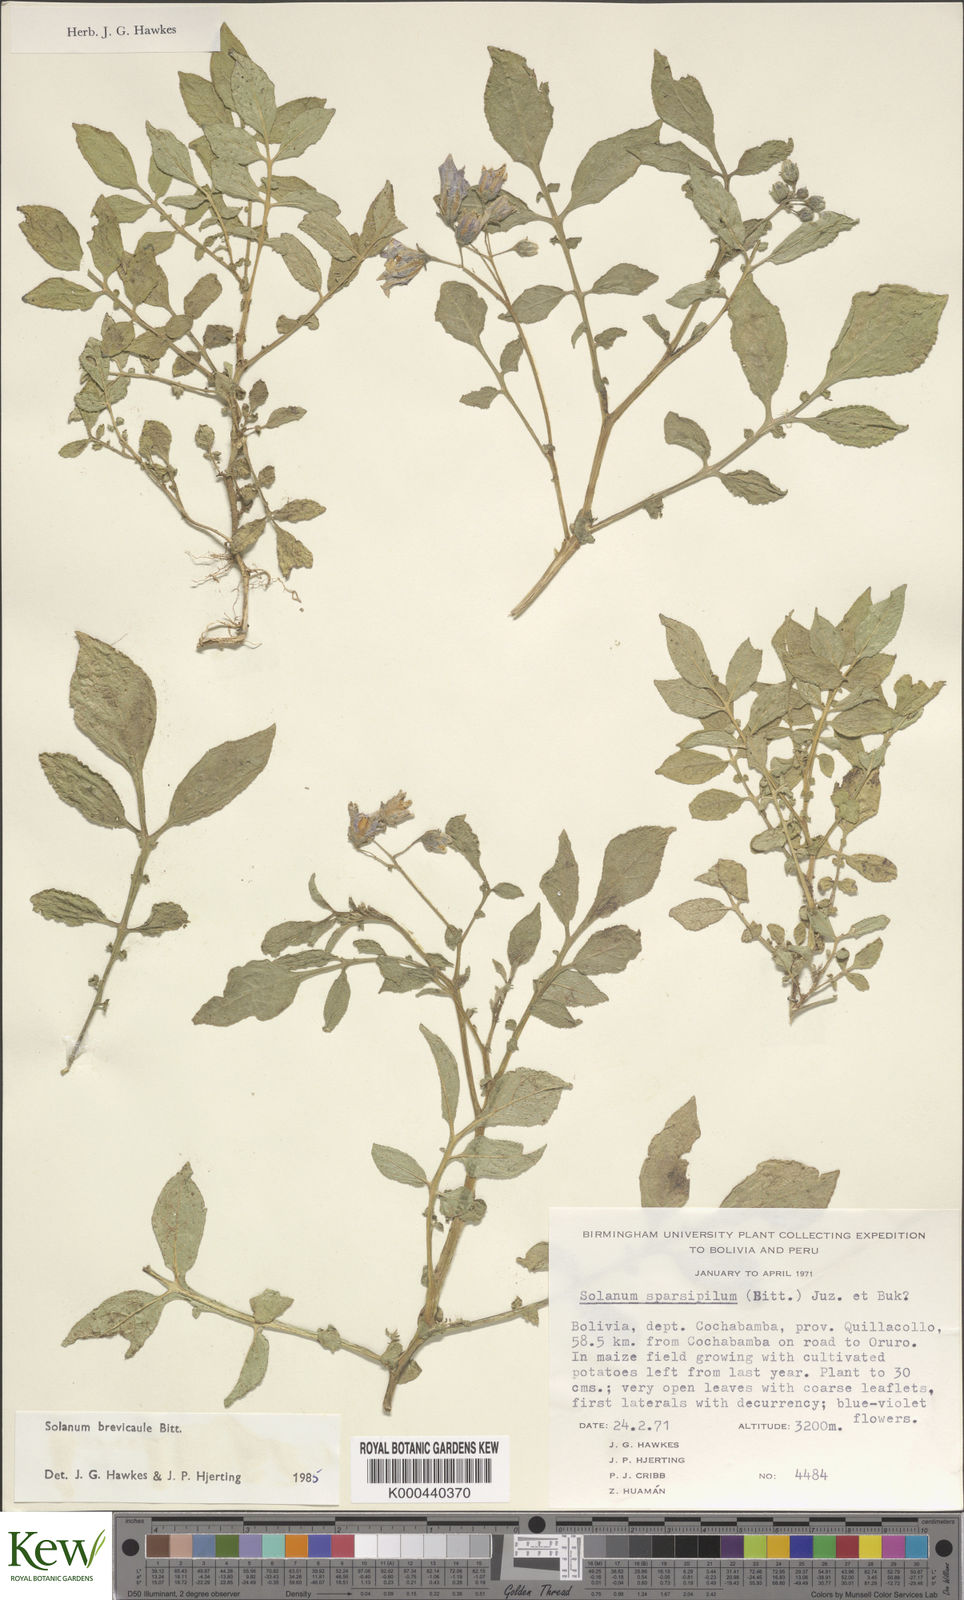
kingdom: Plantae
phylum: Tracheophyta
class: Magnoliopsida
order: Solanales
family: Solanaceae
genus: Solanum
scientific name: Solanum brevicaule
